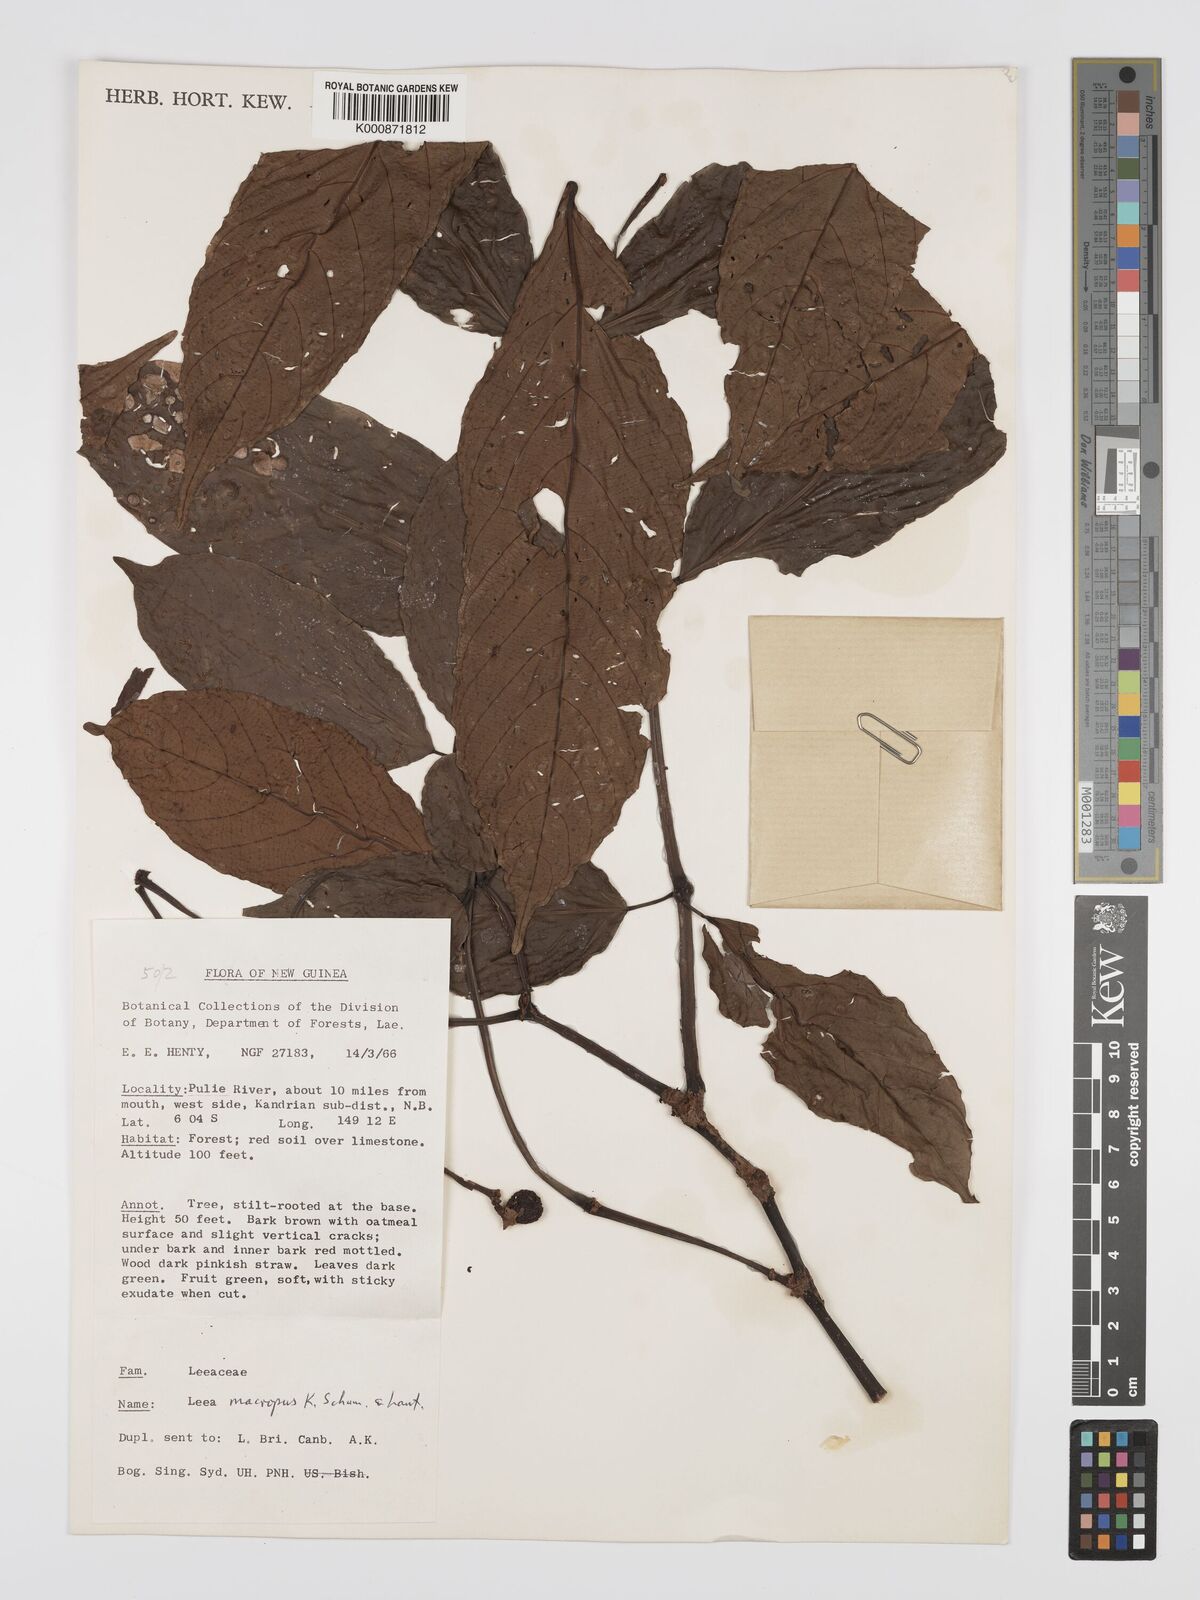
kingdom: Plantae
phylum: Tracheophyta
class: Magnoliopsida
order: Vitales
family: Vitaceae
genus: Leea
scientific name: Leea macropus
